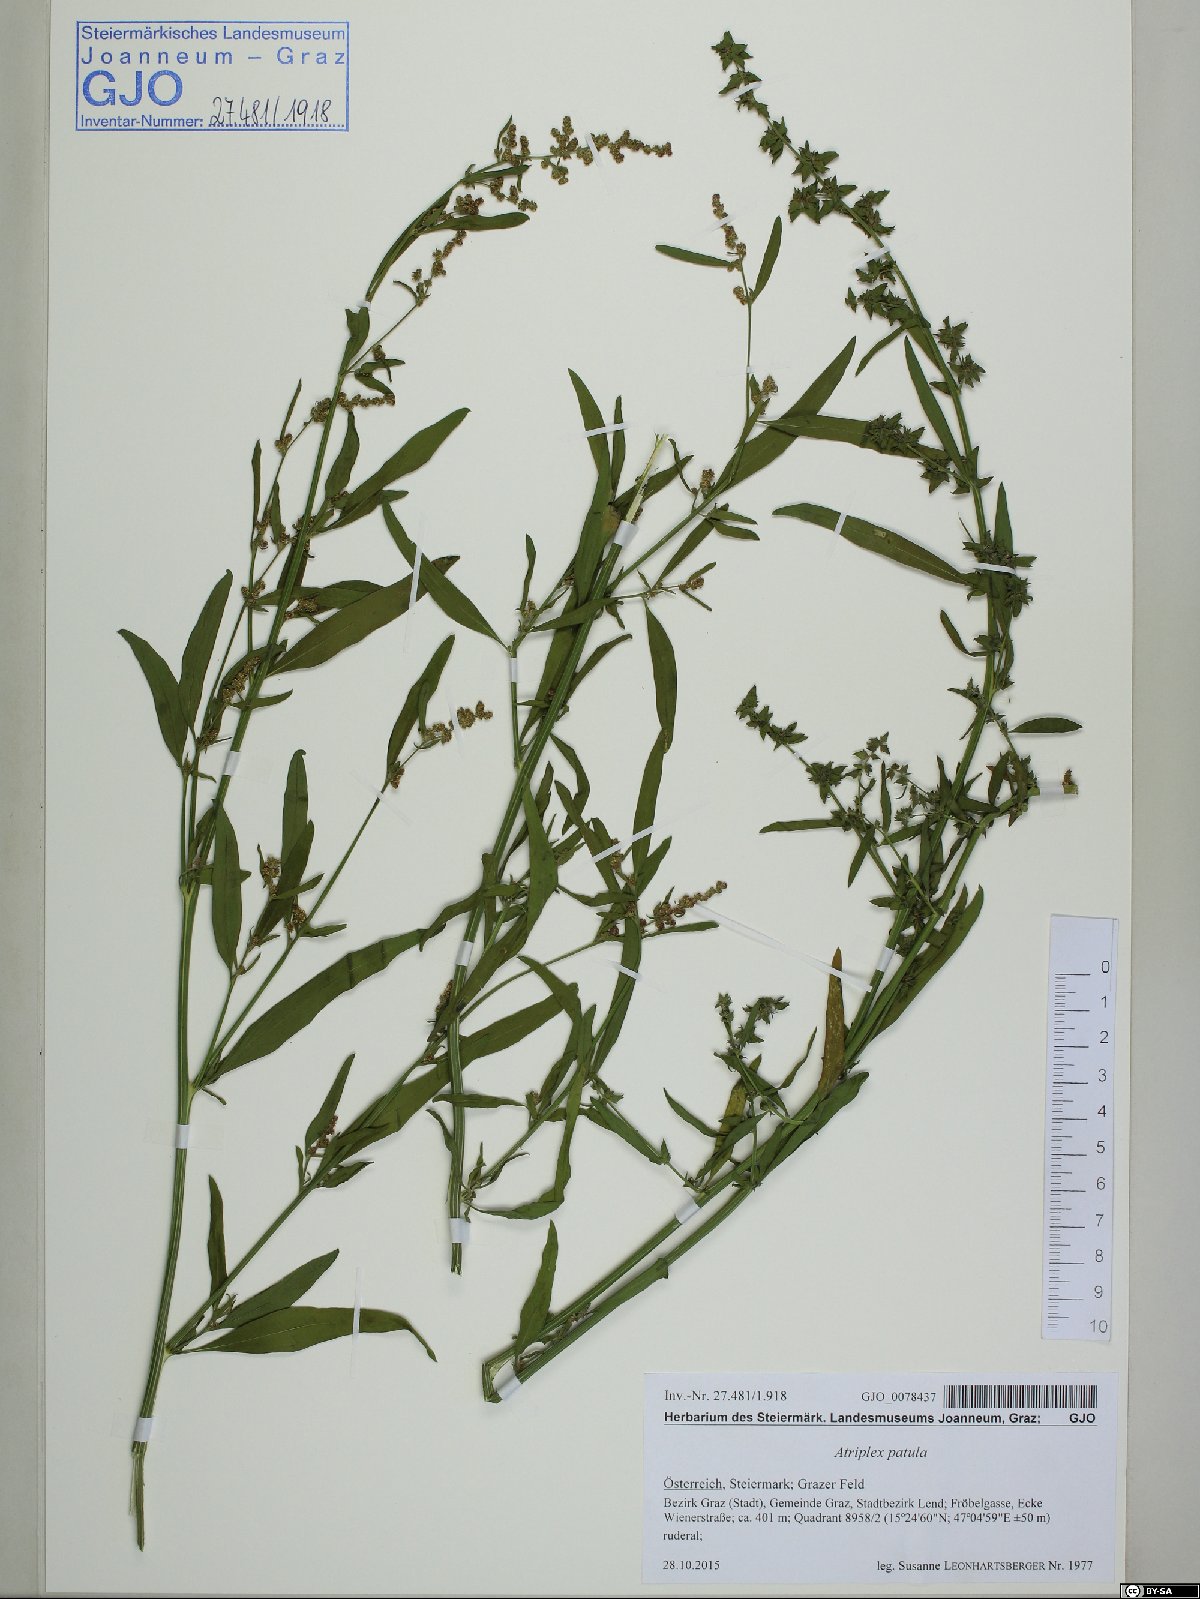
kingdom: Plantae
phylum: Tracheophyta
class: Magnoliopsida
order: Caryophyllales
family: Amaranthaceae
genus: Atriplex
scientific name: Atriplex patula
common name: Common orache
